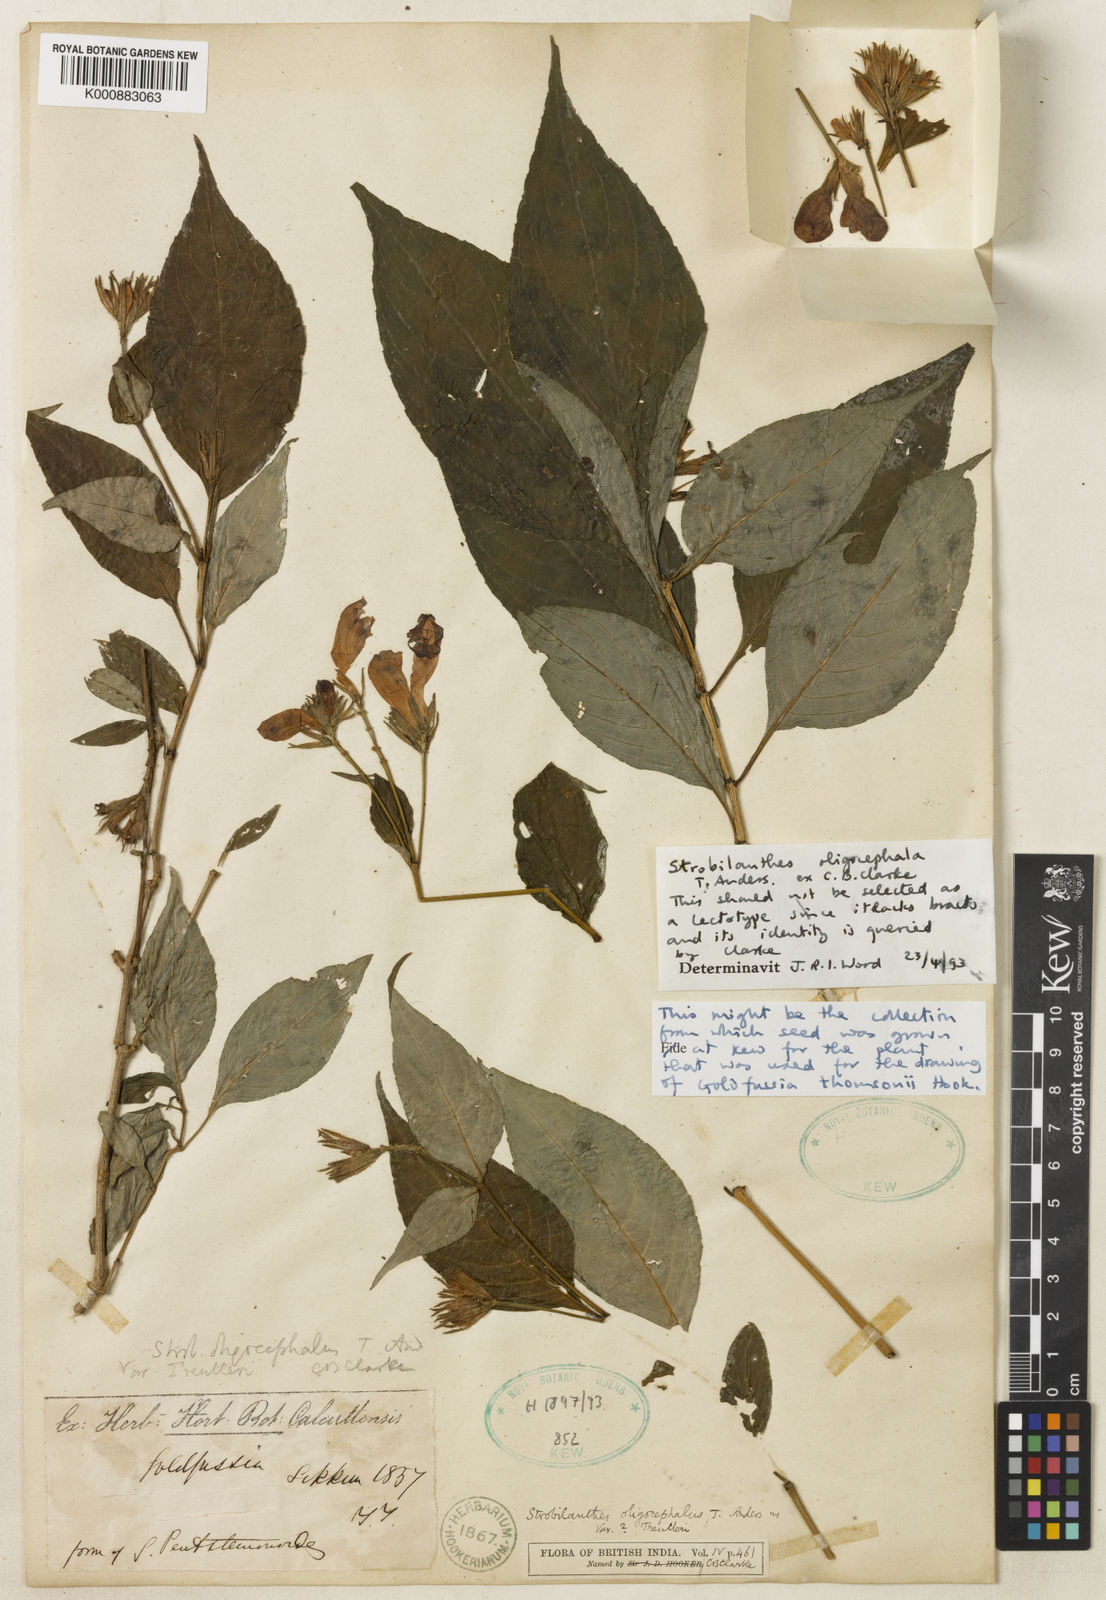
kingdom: Plantae
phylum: Tracheophyta
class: Magnoliopsida
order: Lamiales
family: Acanthaceae
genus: Strobilanthes
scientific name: Strobilanthes oligocephala
